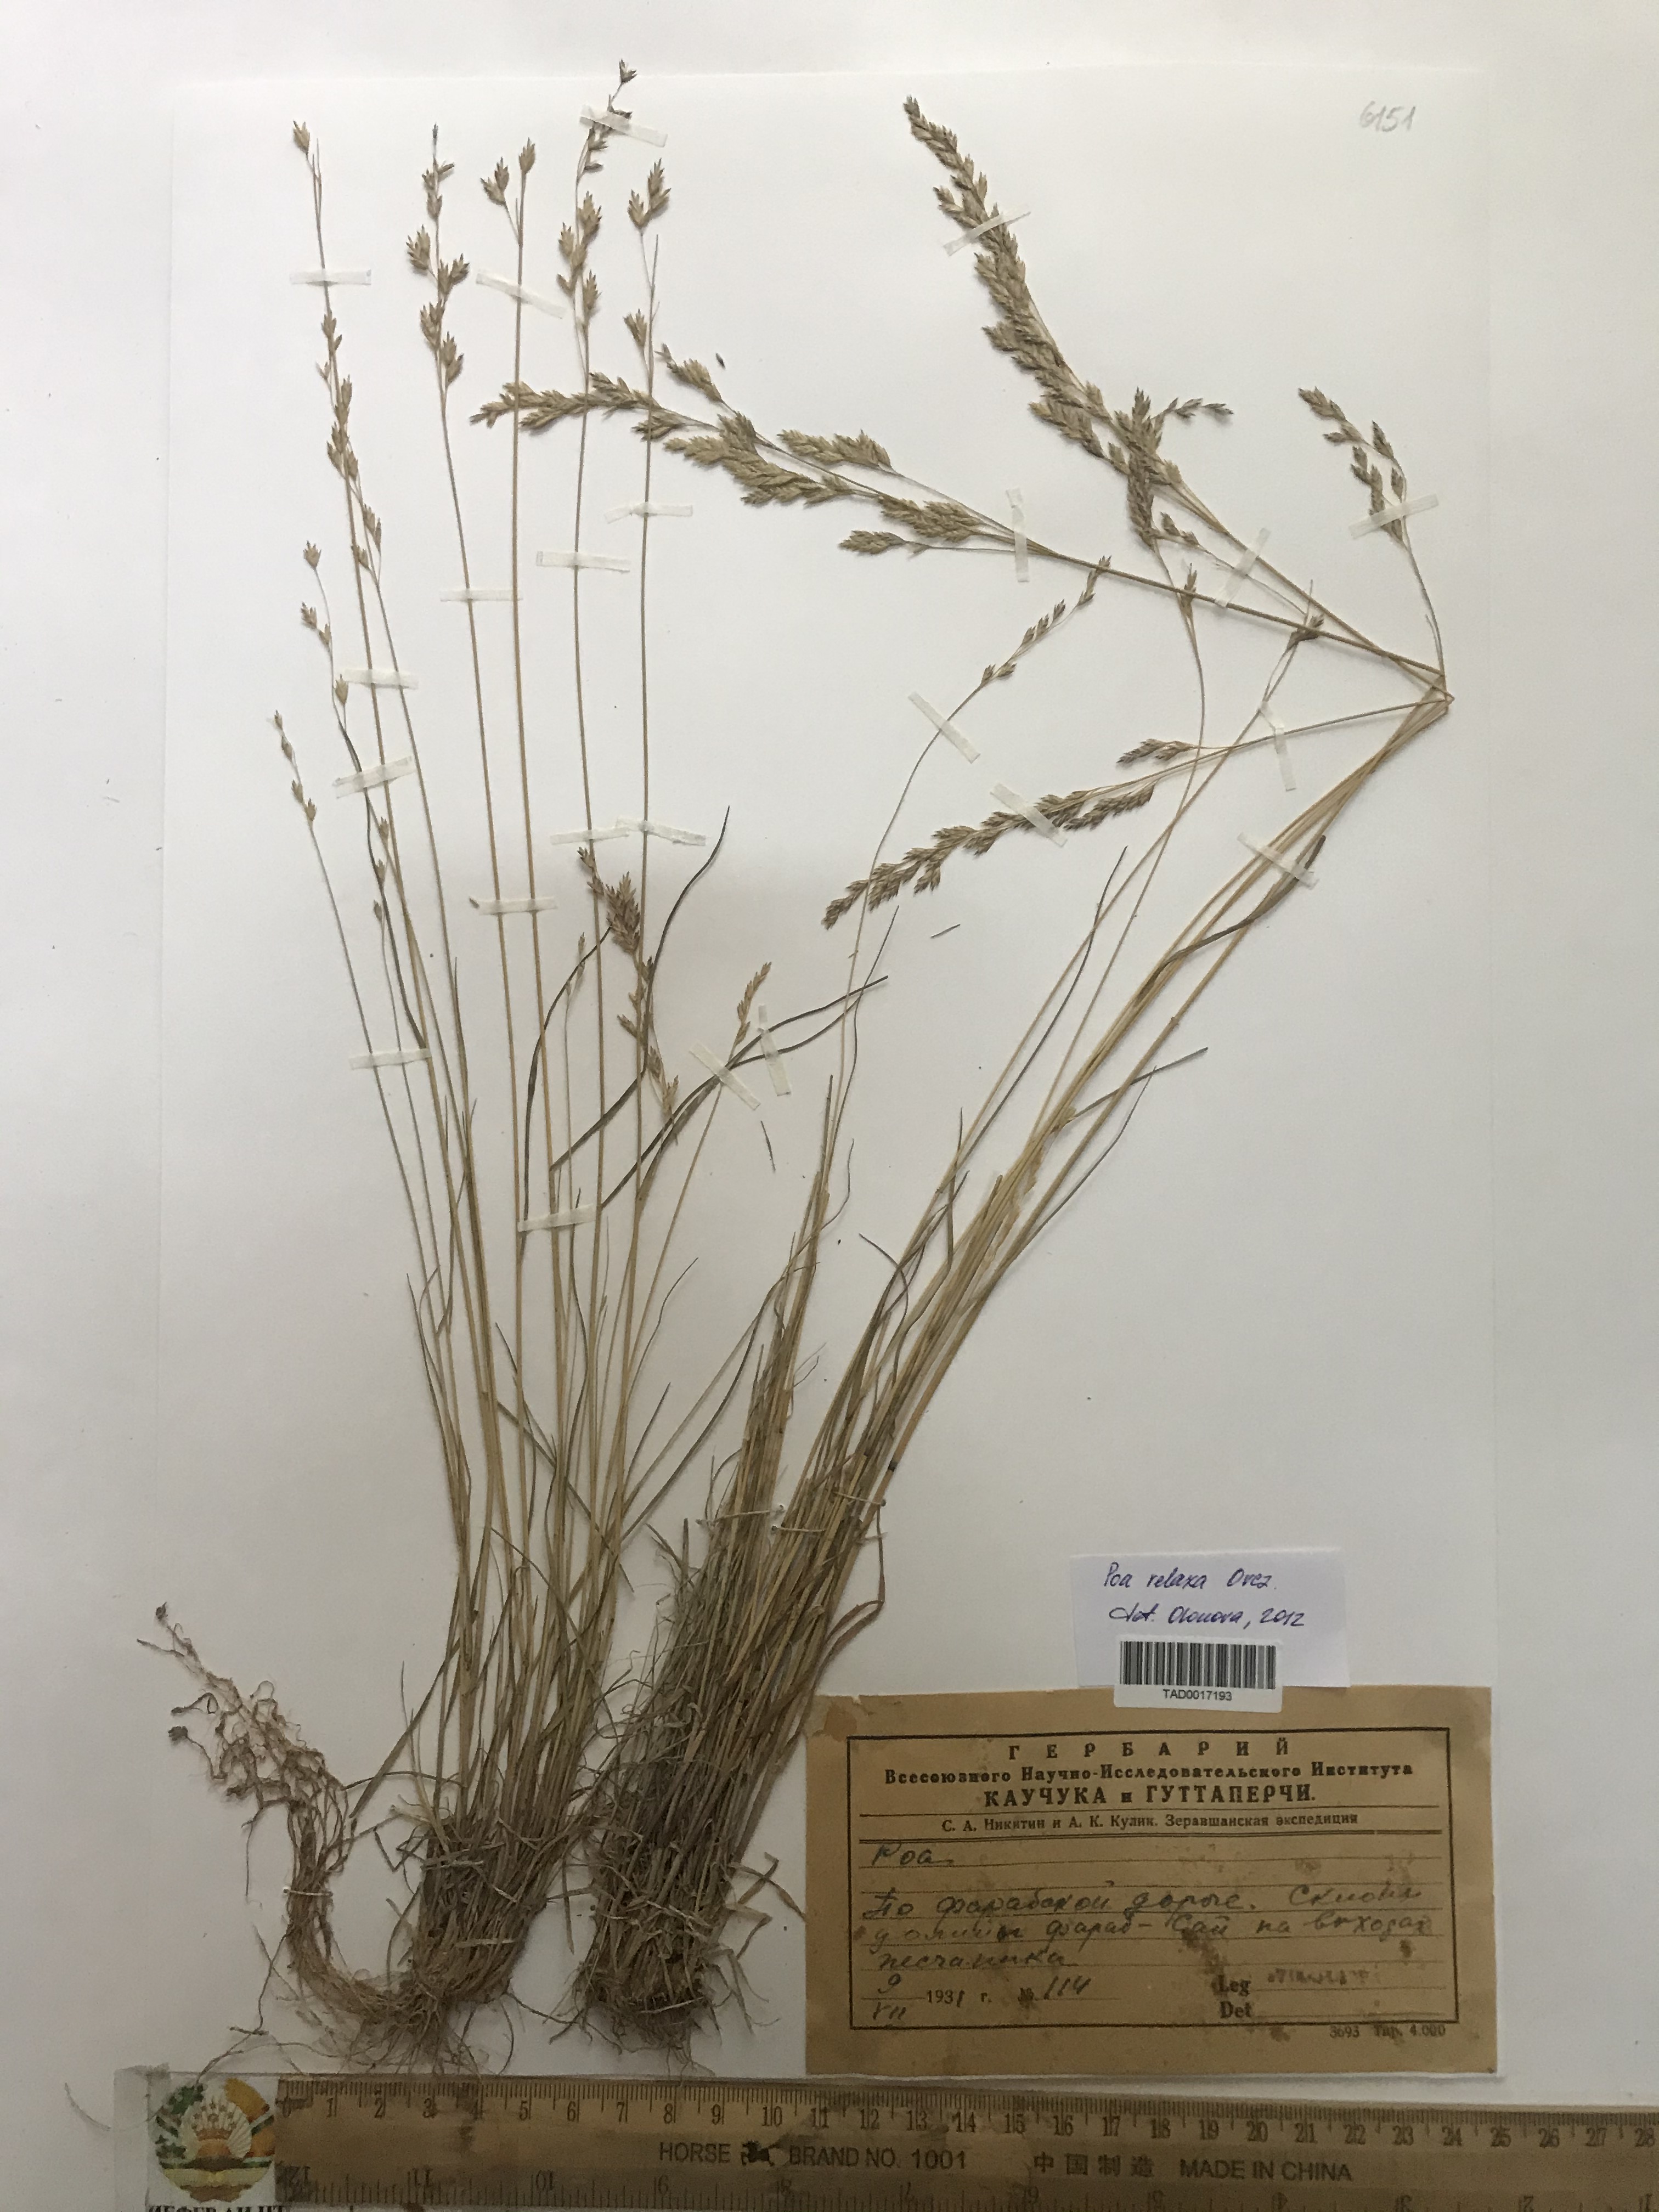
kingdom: Plantae
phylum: Tracheophyta
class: Liliopsida
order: Poales
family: Poaceae
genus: Poa
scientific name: Poa urssulensis
